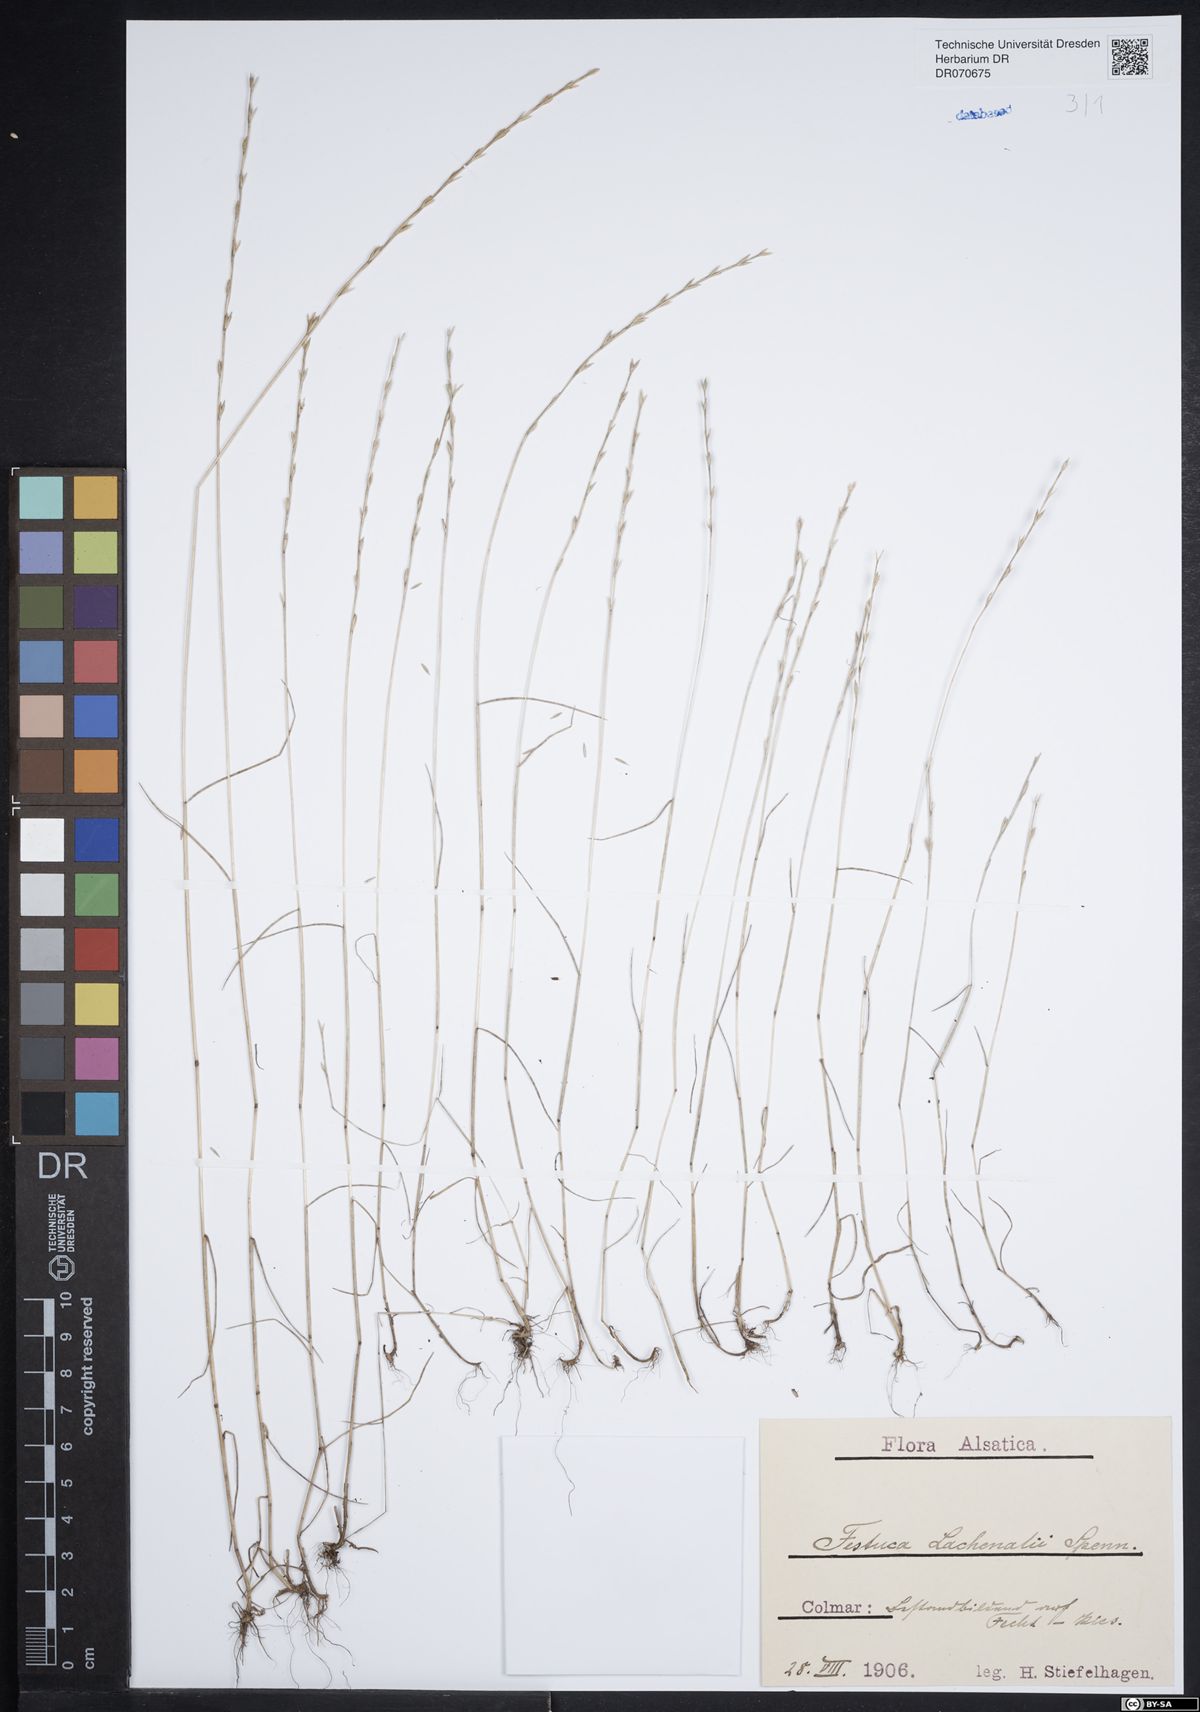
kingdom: Plantae
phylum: Tracheophyta
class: Liliopsida
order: Poales
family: Poaceae
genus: Festuca
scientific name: Festuca lachenalii
